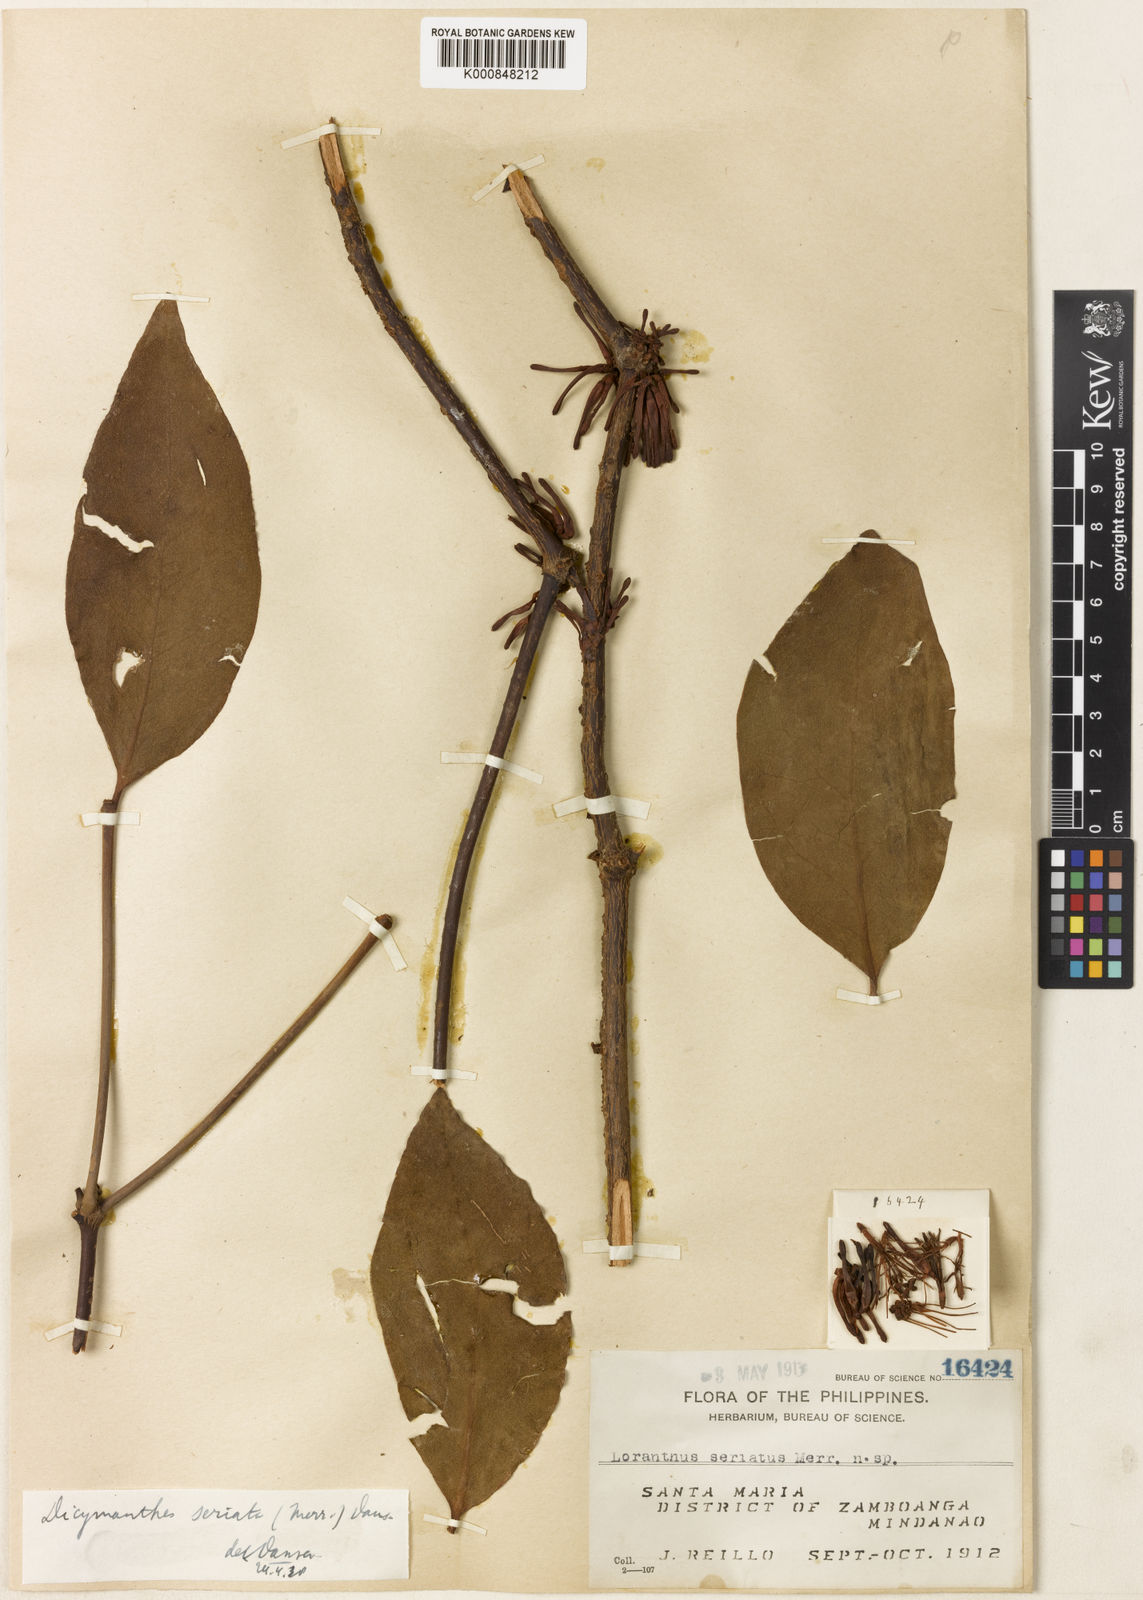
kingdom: Plantae
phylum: Tracheophyta
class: Magnoliopsida
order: Santalales
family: Loranthaceae
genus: Amyema
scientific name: Amyema seriata
